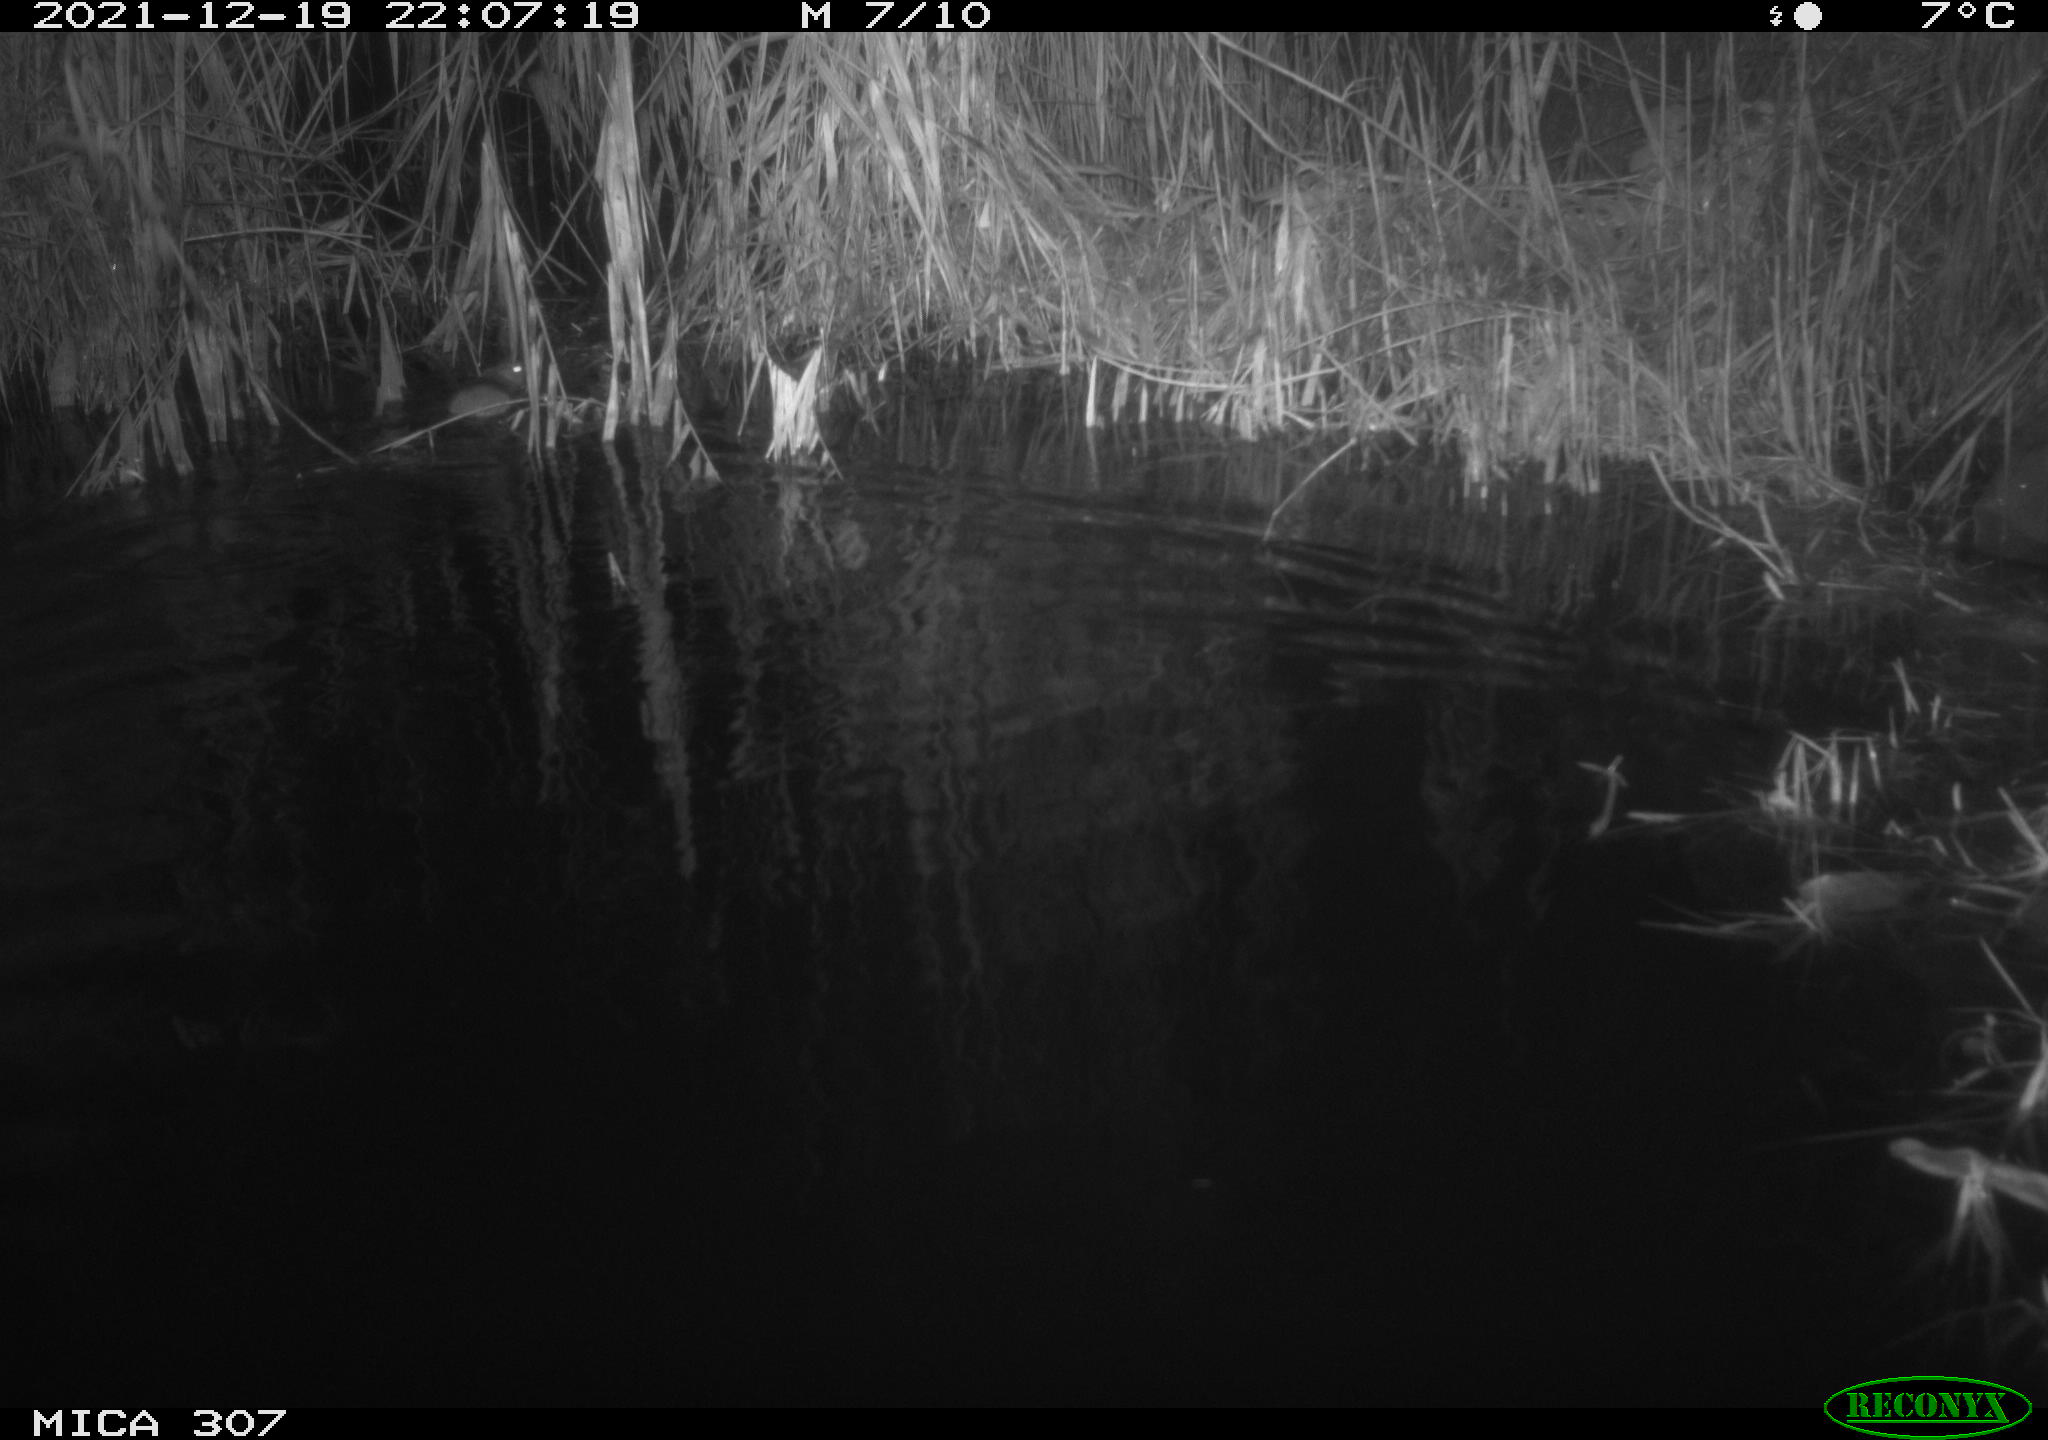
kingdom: Animalia
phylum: Chordata
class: Mammalia
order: Rodentia
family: Muridae
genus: Rattus
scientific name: Rattus norvegicus
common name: Brown rat
